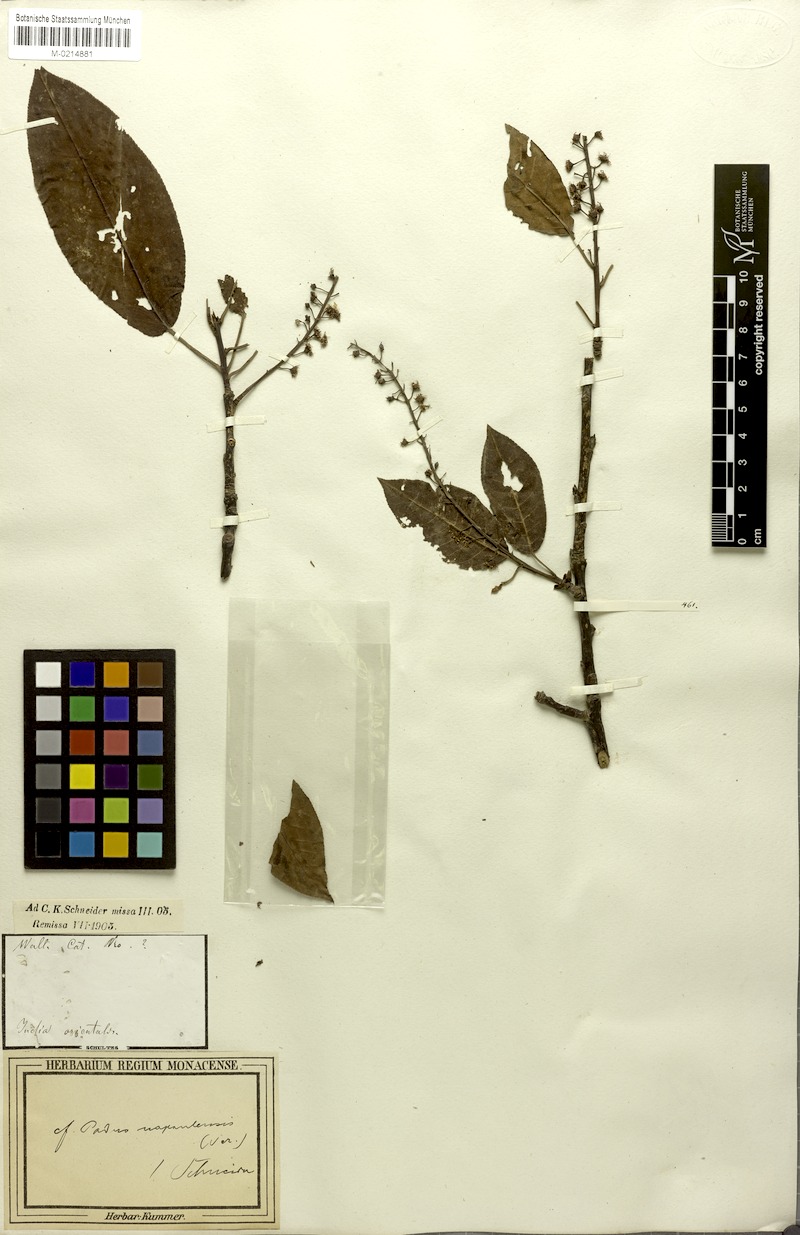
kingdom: Plantae
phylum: Tracheophyta
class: Magnoliopsida
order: Rosales
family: Rosaceae
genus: Prunus
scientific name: Prunus napaulensis
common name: Khasia cherry
